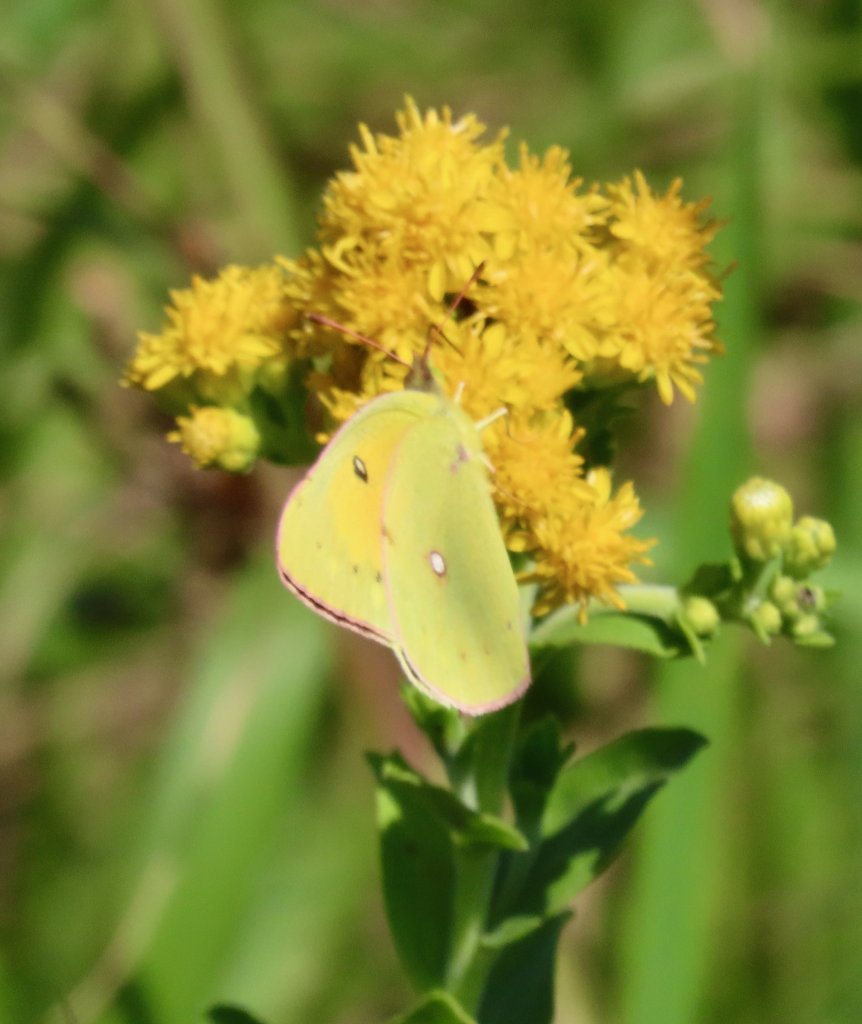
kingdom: Animalia
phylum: Arthropoda
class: Insecta
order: Lepidoptera
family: Pieridae
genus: Colias
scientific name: Colias eurytheme
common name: Orange Sulphur
